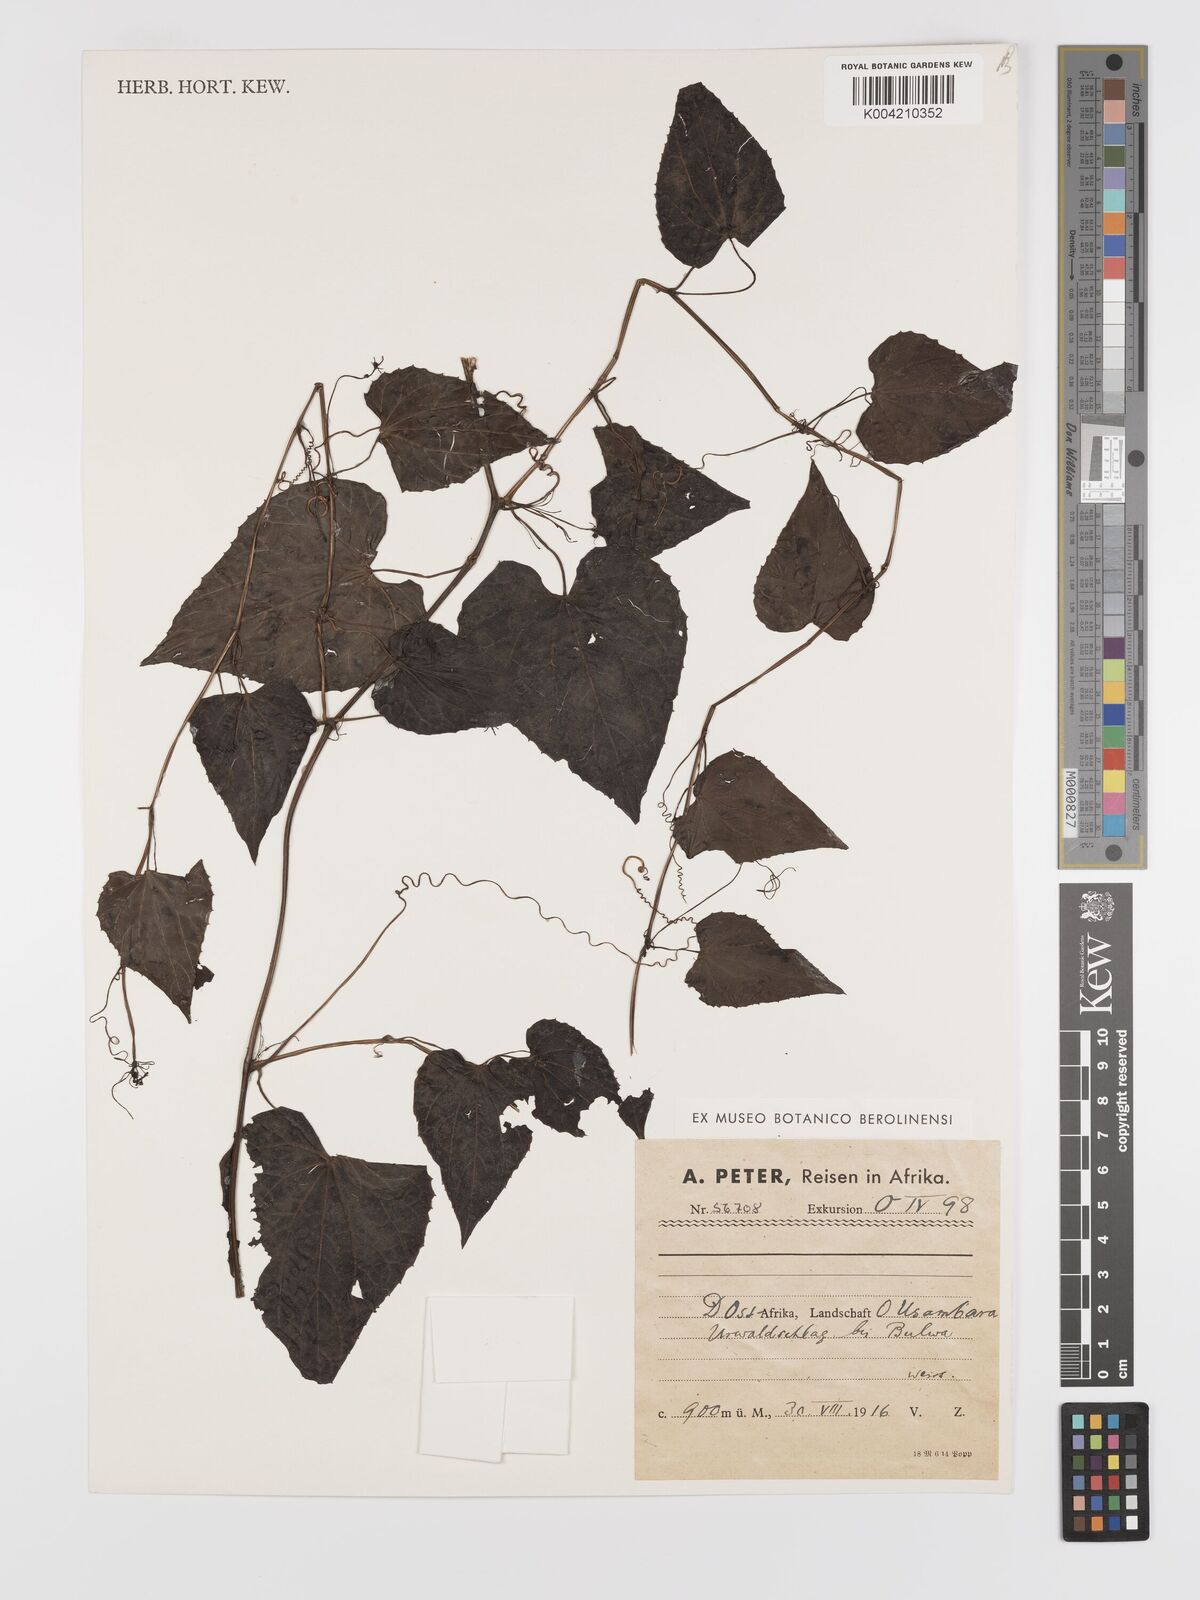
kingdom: Plantae
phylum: Tracheophyta
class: Magnoliopsida
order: Cucurbitales
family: Cucurbitaceae
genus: Zehneria
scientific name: Zehneria emirnensis
